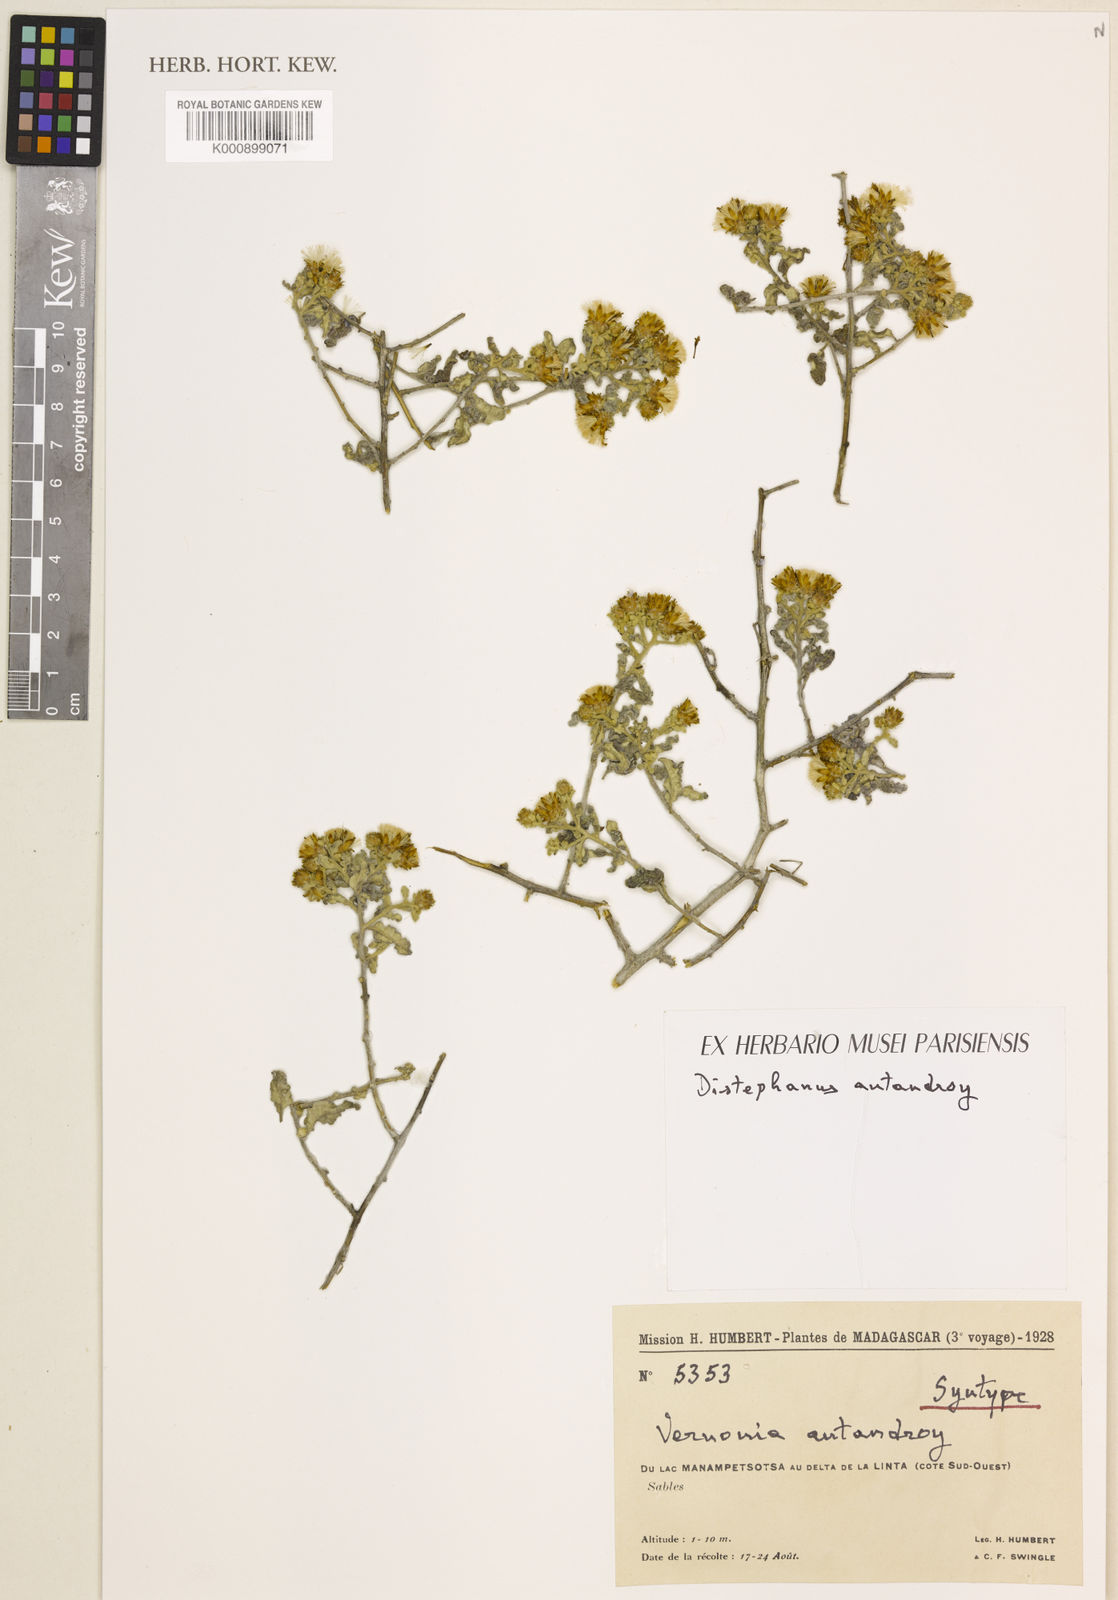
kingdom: Plantae
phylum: Tracheophyta
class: Magnoliopsida
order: Asterales
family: Asteraceae
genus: Distephanus
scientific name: Distephanus antandroy
